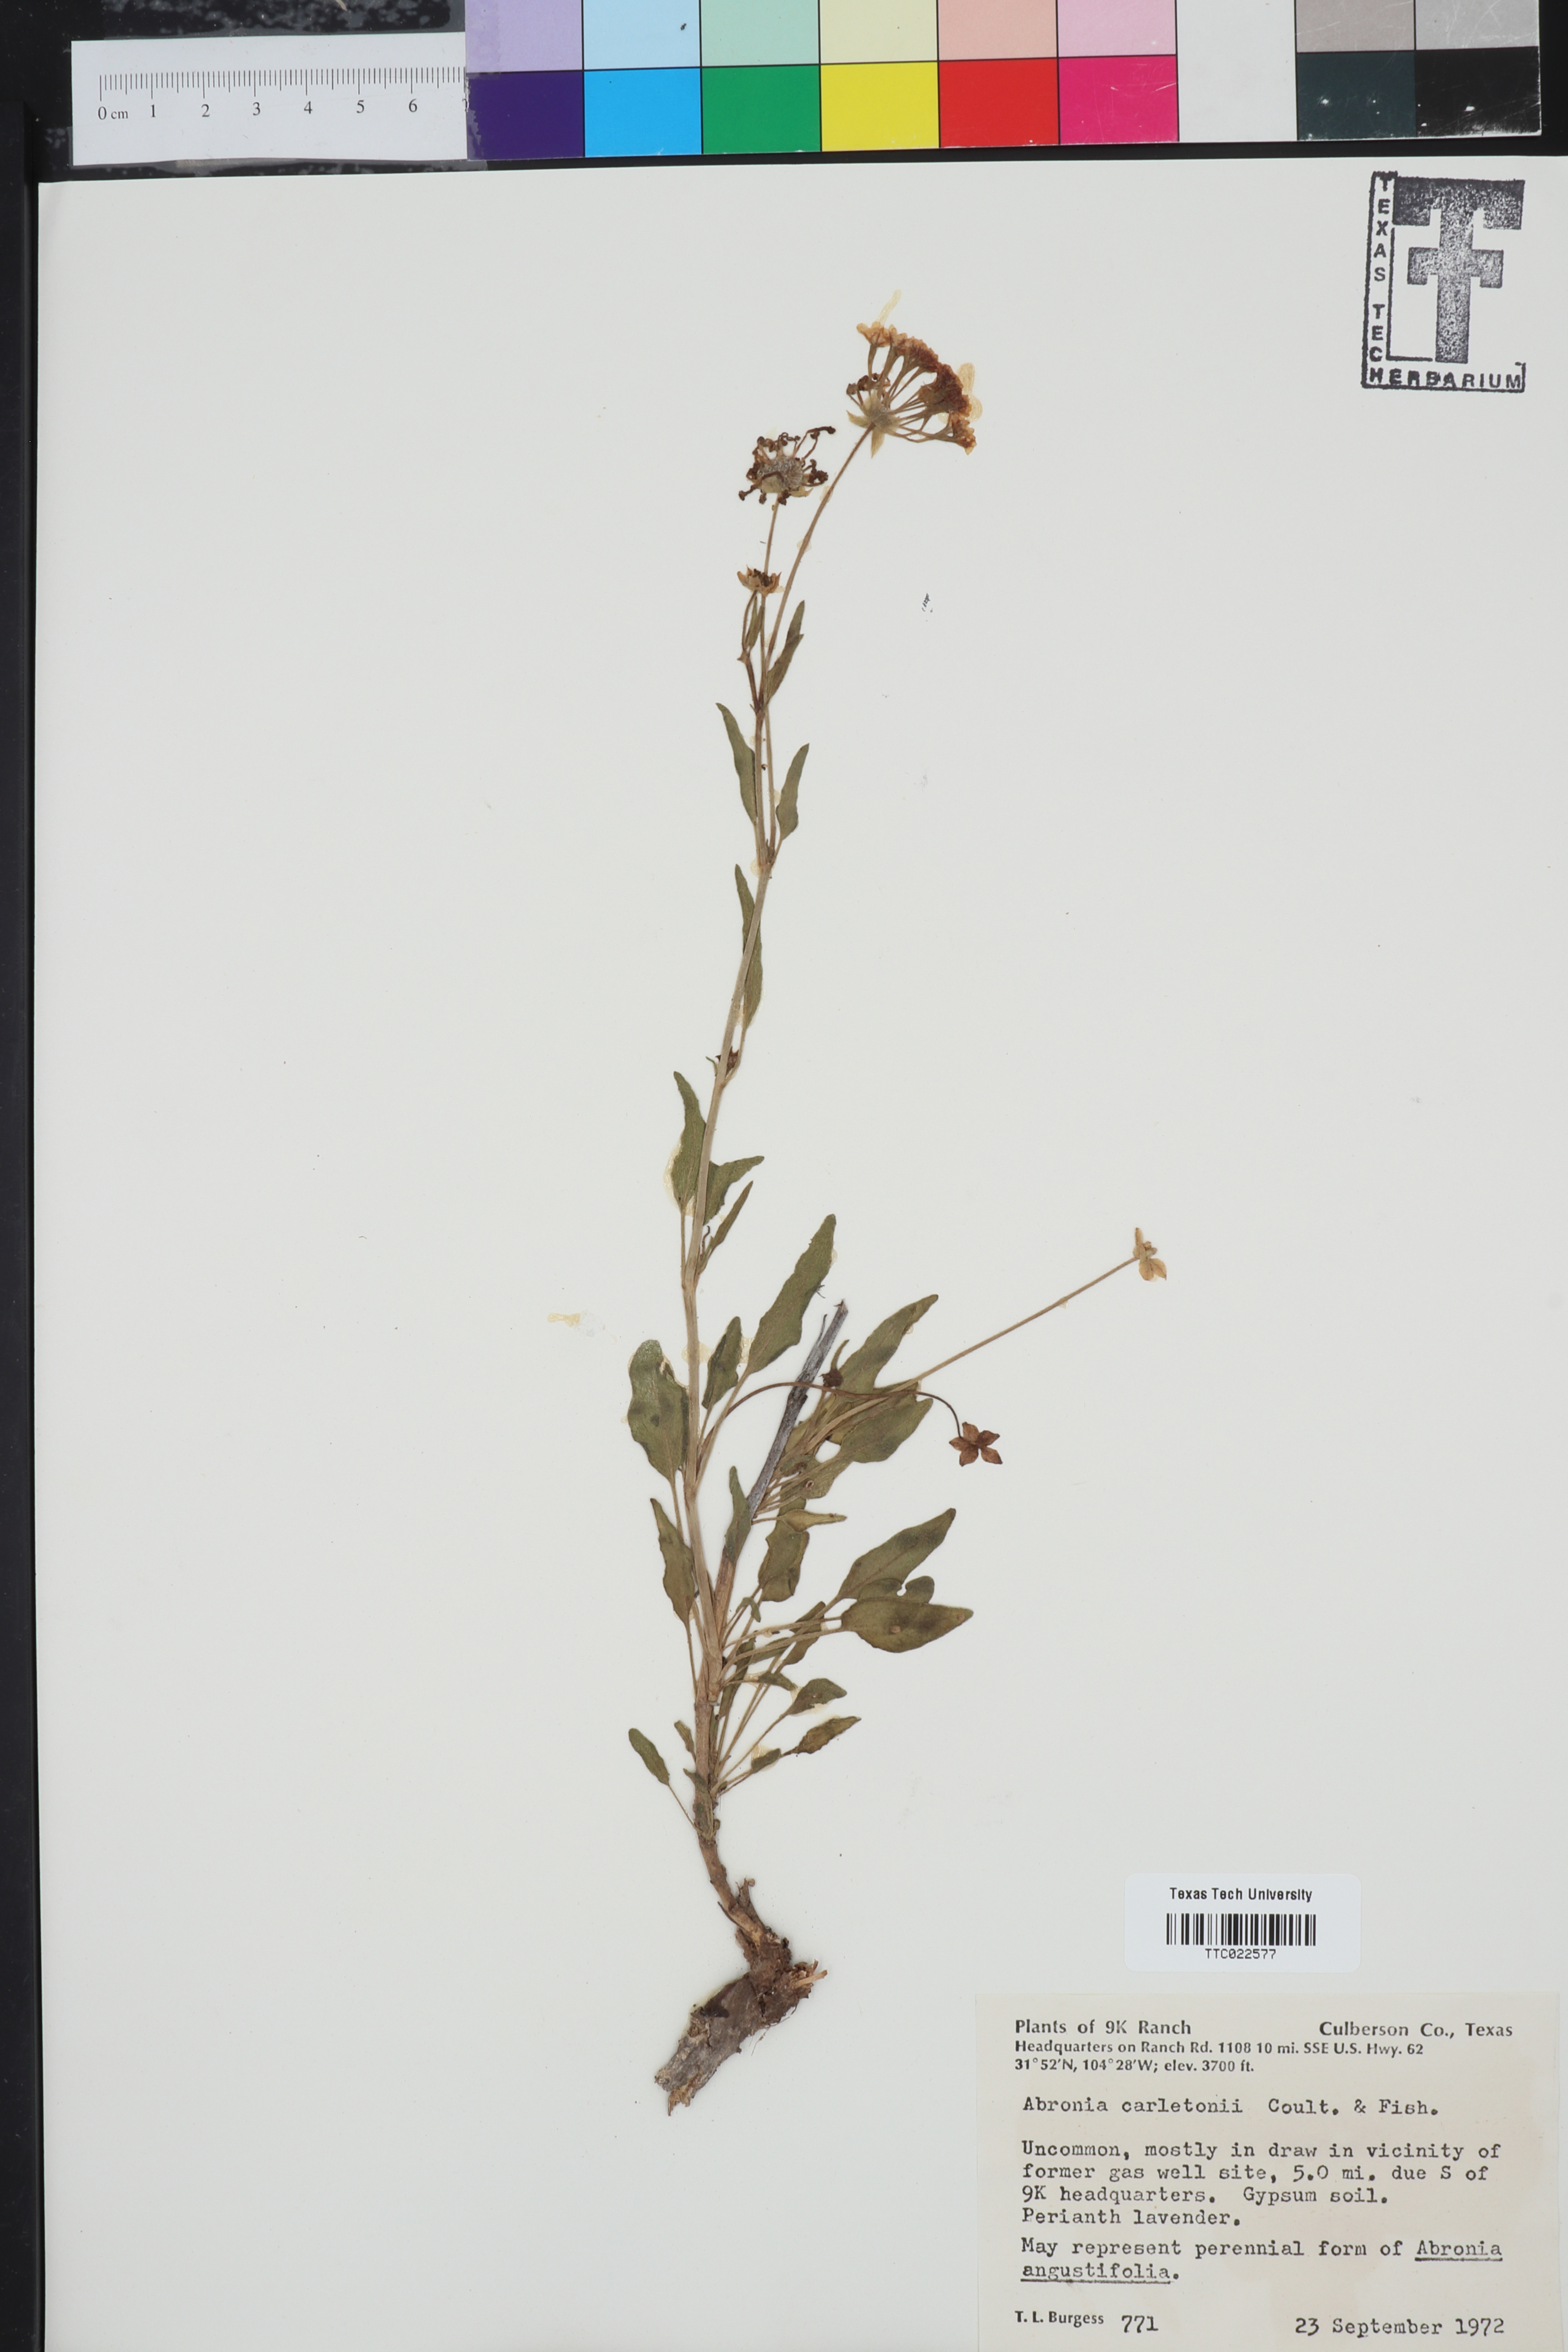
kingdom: Plantae
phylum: Tracheophyta
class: Magnoliopsida
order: Caryophyllales
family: Nyctaginaceae
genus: Abronia
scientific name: Abronia carletonii
